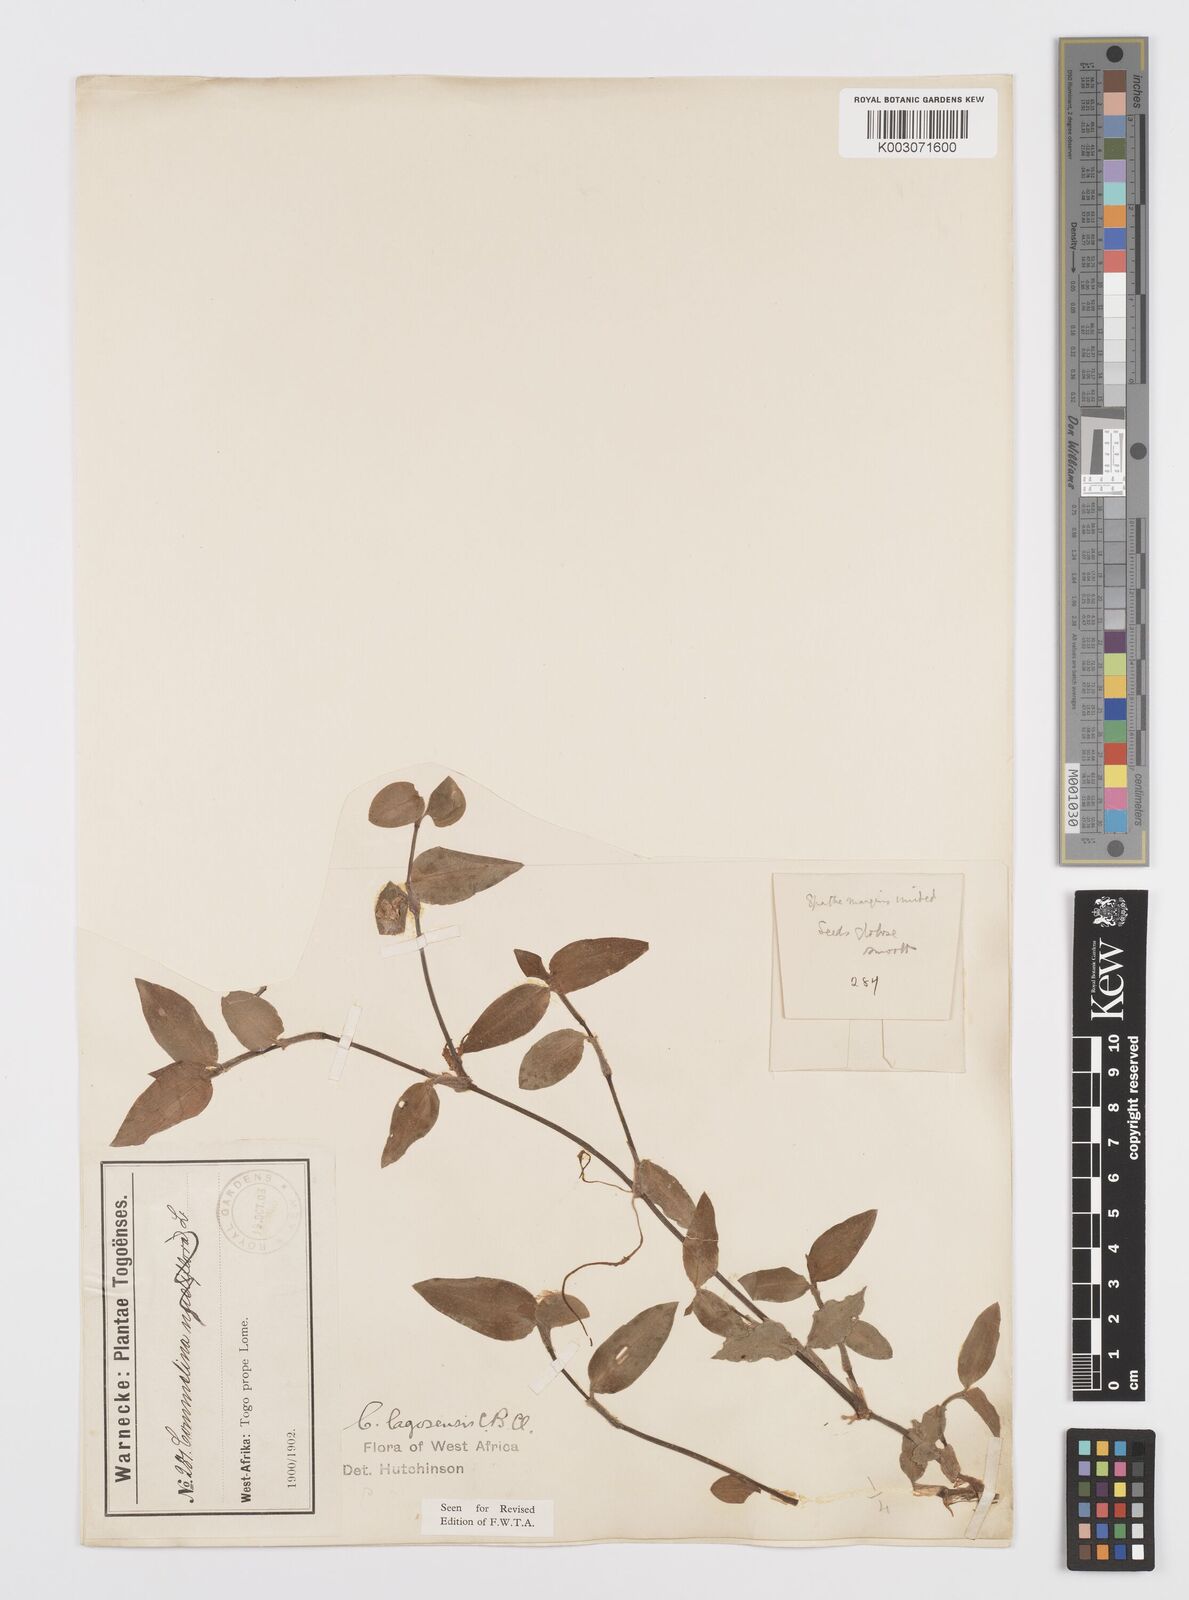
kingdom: Plantae
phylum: Tracheophyta
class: Liliopsida
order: Commelinales
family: Commelinaceae
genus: Commelina
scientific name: Commelina bracteosa
